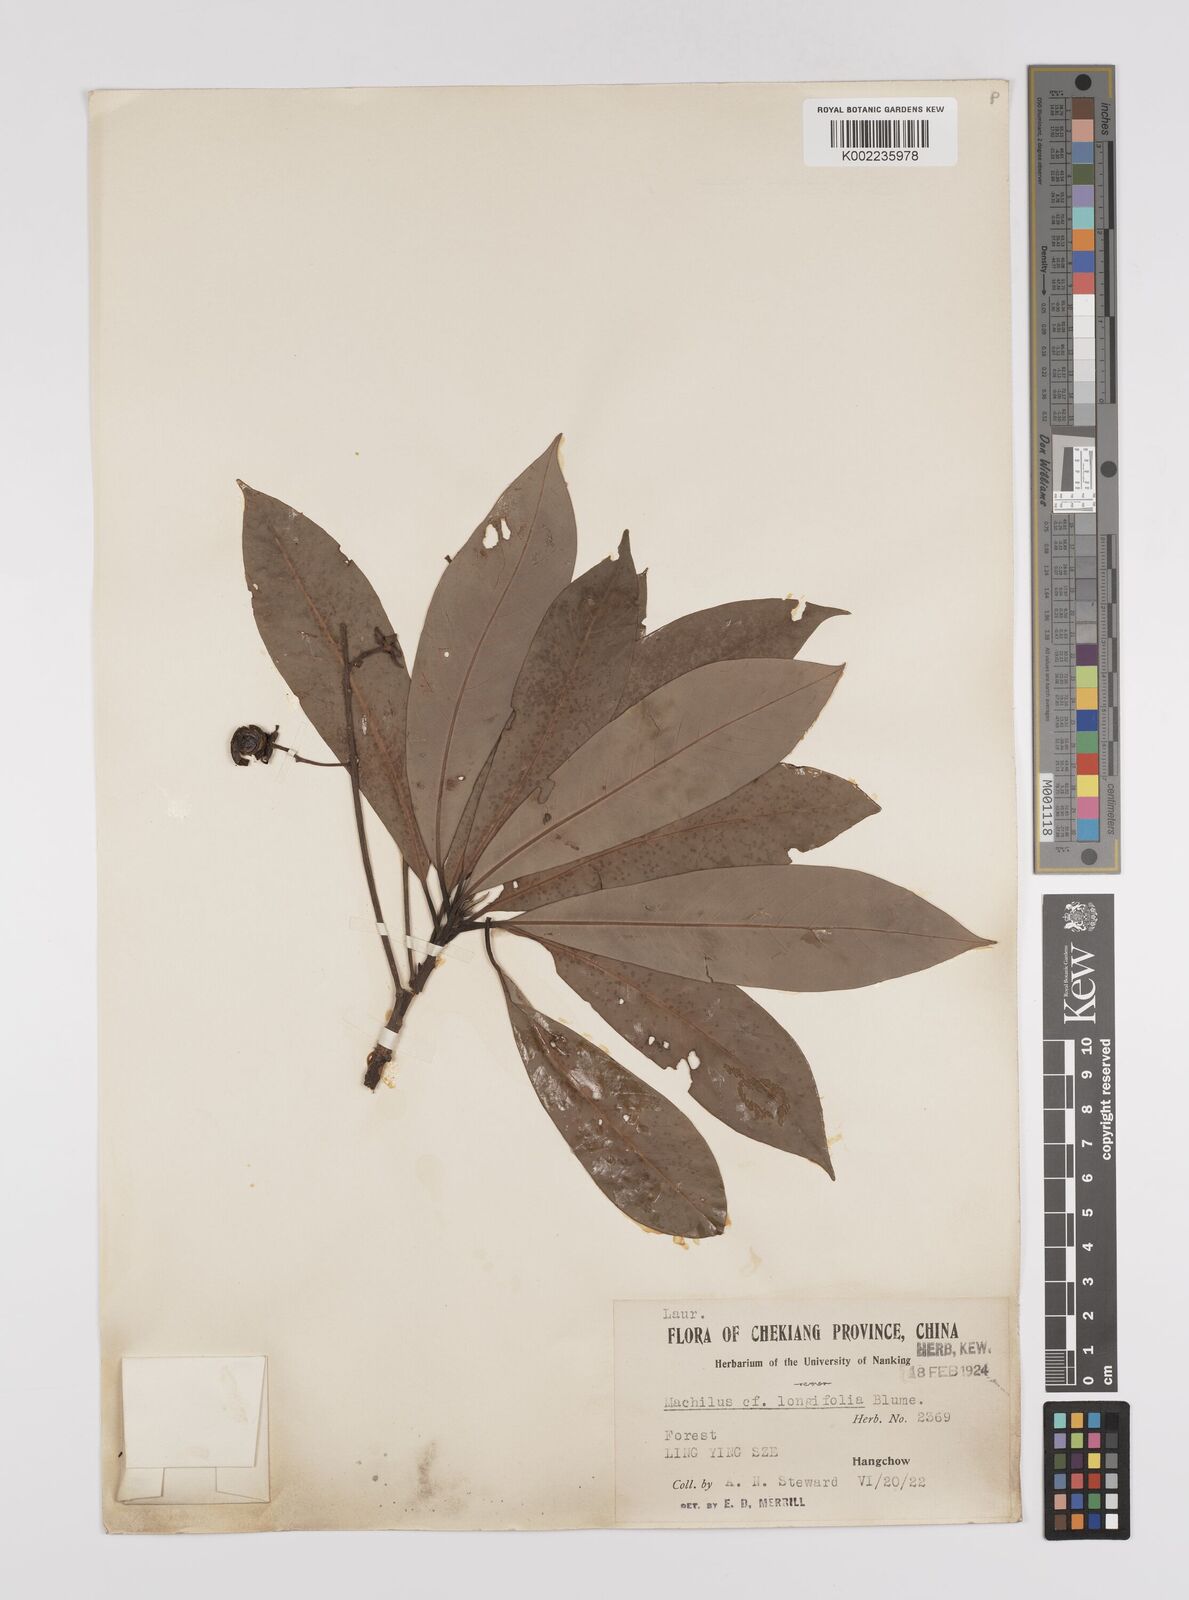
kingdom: Plantae
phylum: Tracheophyta
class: Magnoliopsida
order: Laurales
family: Lauraceae
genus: Persea
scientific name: Persea
